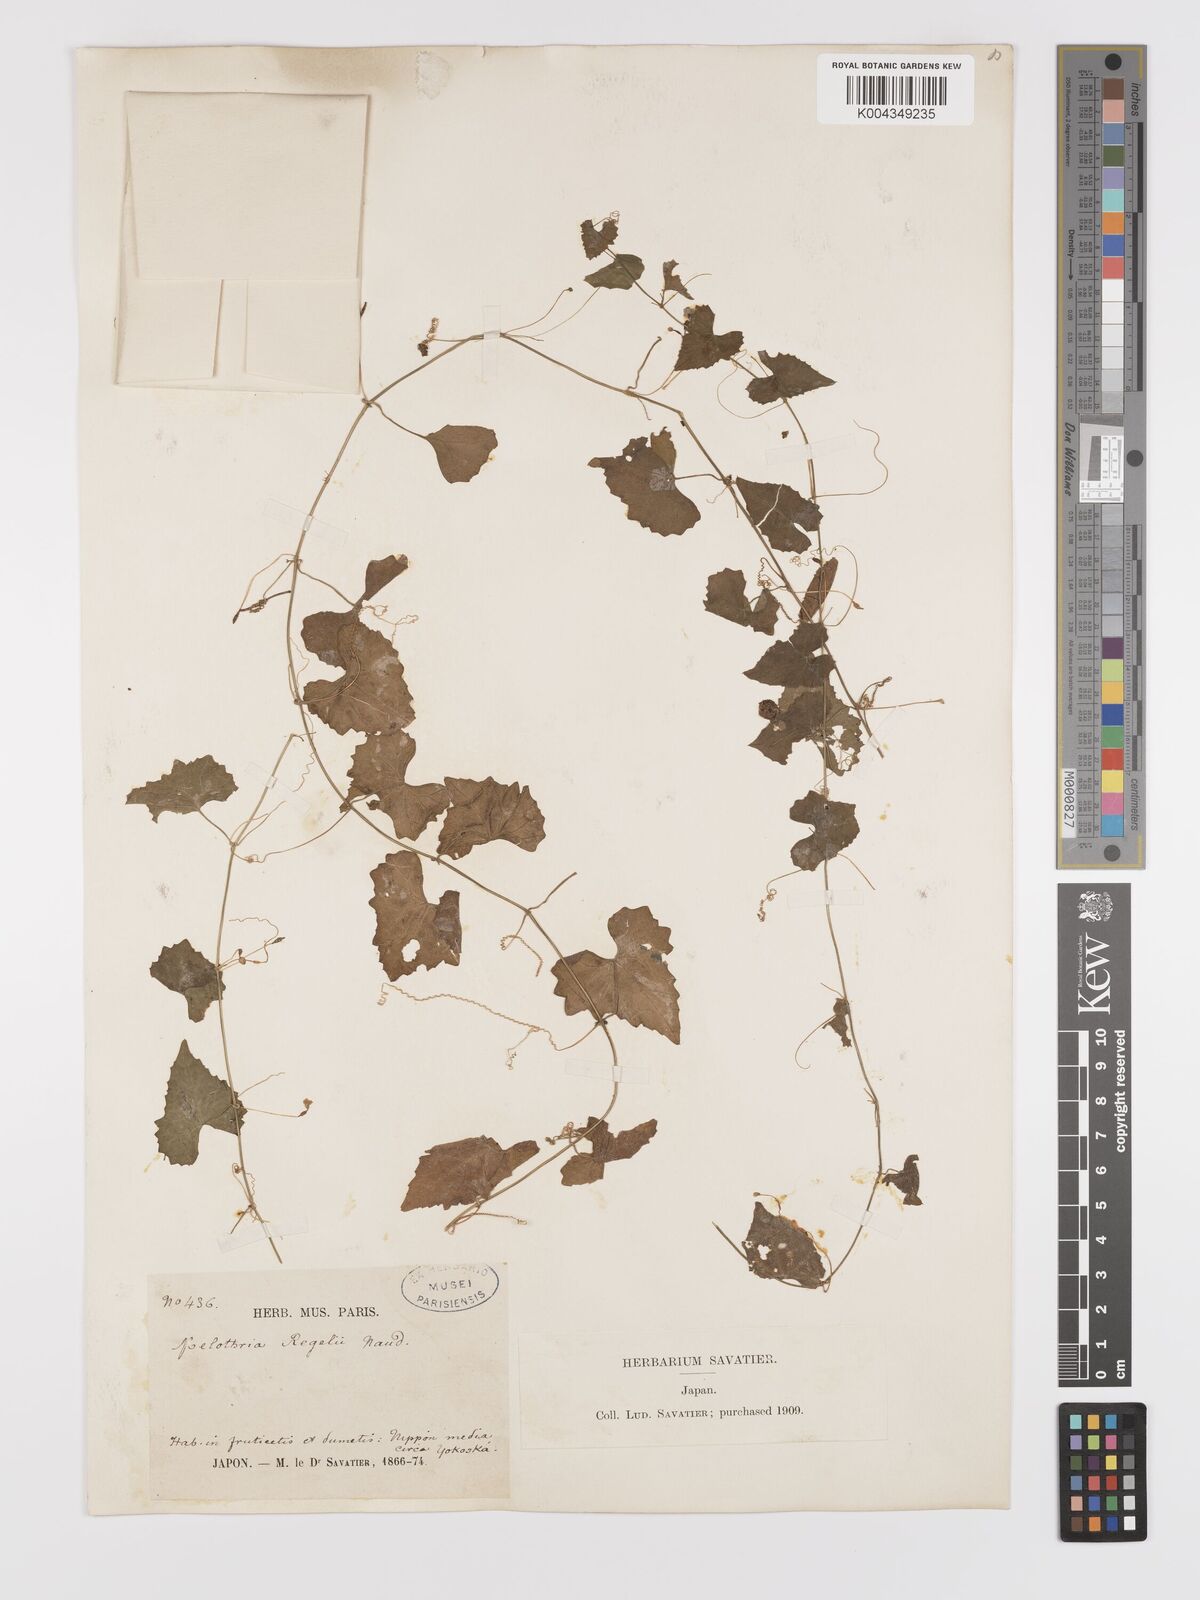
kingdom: Plantae
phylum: Tracheophyta
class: Magnoliopsida
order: Cucurbitales
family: Cucurbitaceae
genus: Zehneria
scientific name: Zehneria japonica
